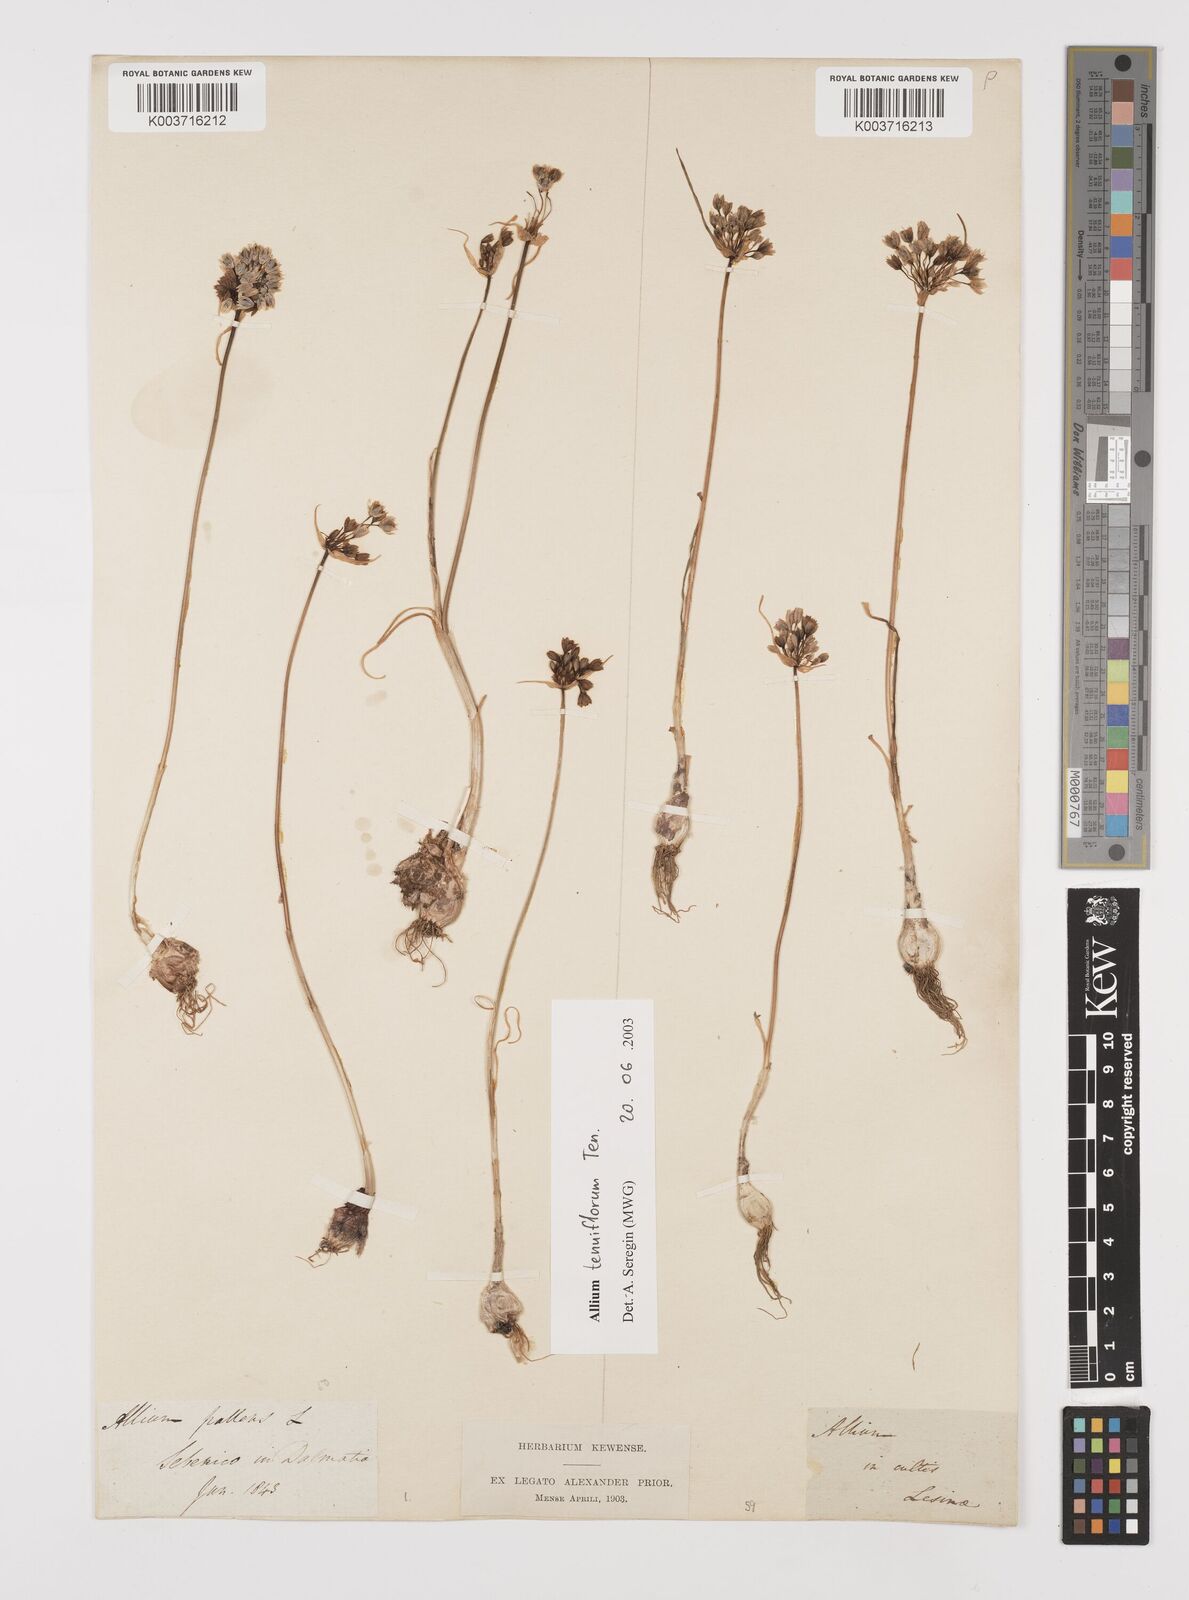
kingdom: Plantae
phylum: Tracheophyta
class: Liliopsida
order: Asparagales
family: Amaryllidaceae
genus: Allium
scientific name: Allium tenuiflorum
